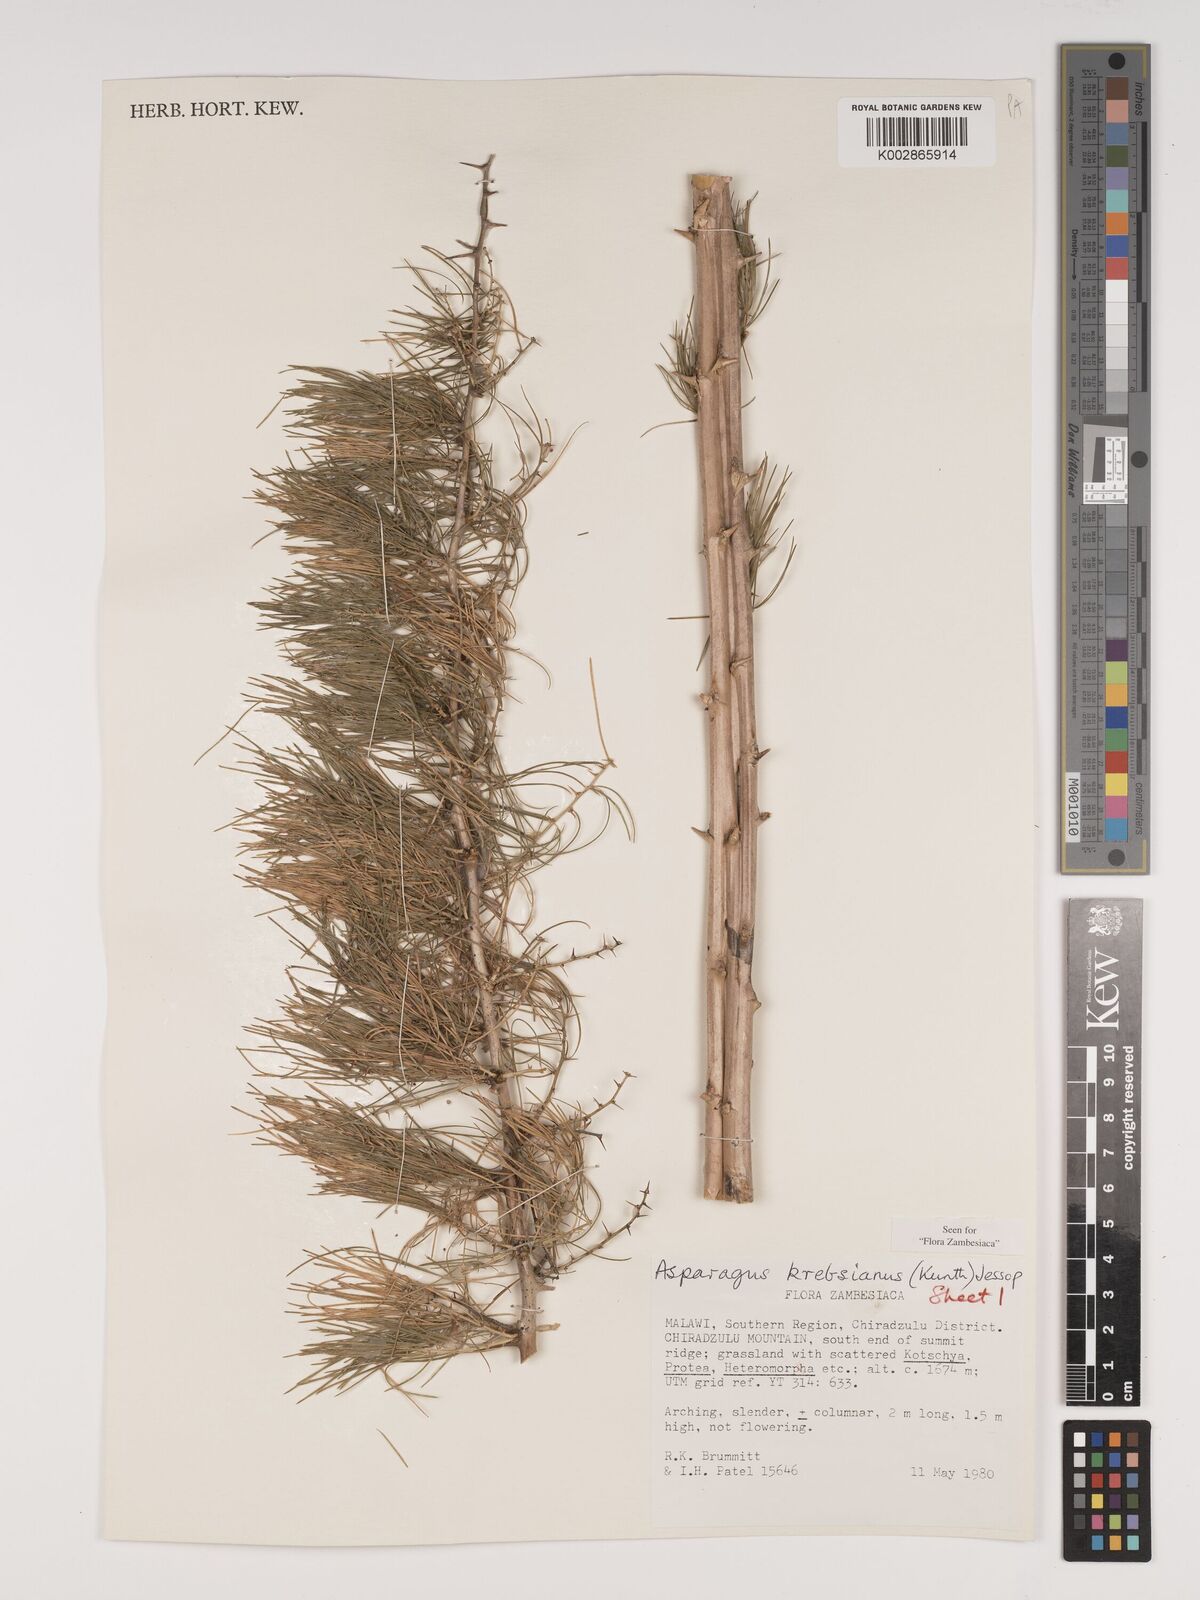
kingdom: Plantae
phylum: Tracheophyta
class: Liliopsida
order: Asparagales
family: Asparagaceae
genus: Asparagus
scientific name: Asparagus krebsianus
